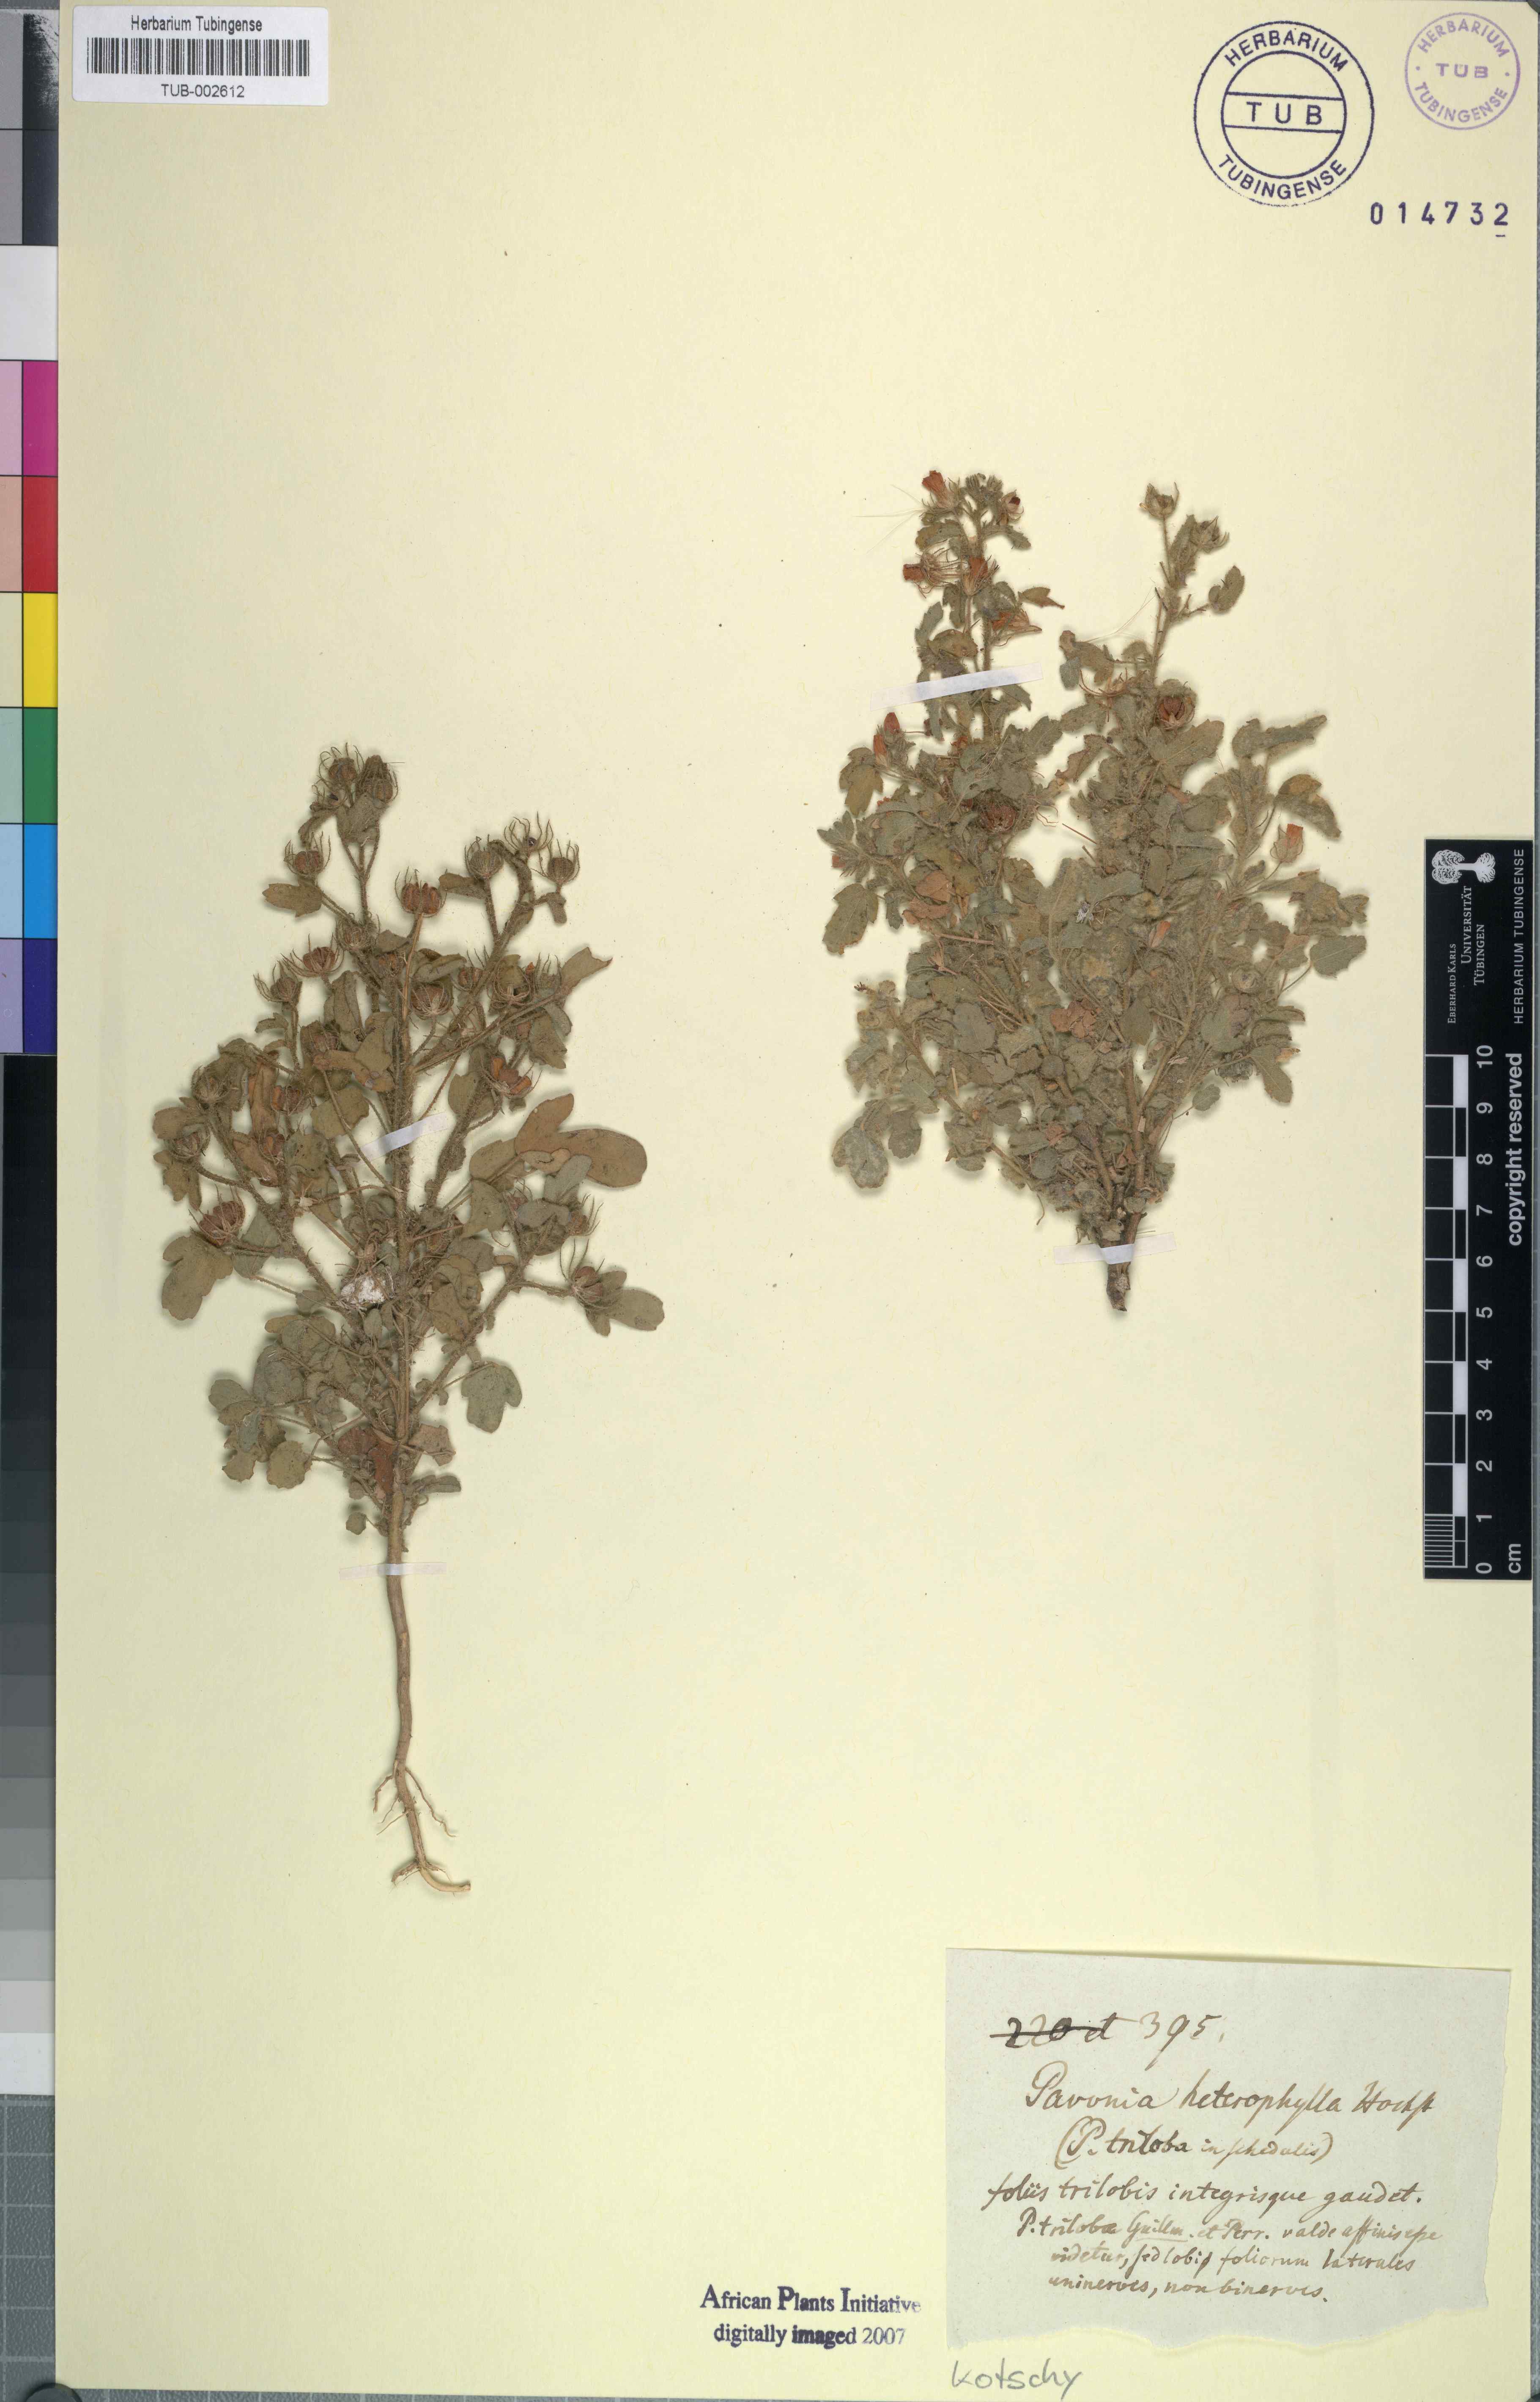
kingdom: Plantae
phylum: Tracheophyta
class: Magnoliopsida
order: Malvales
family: Malvaceae
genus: Pavonia
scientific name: Pavonia triloba
